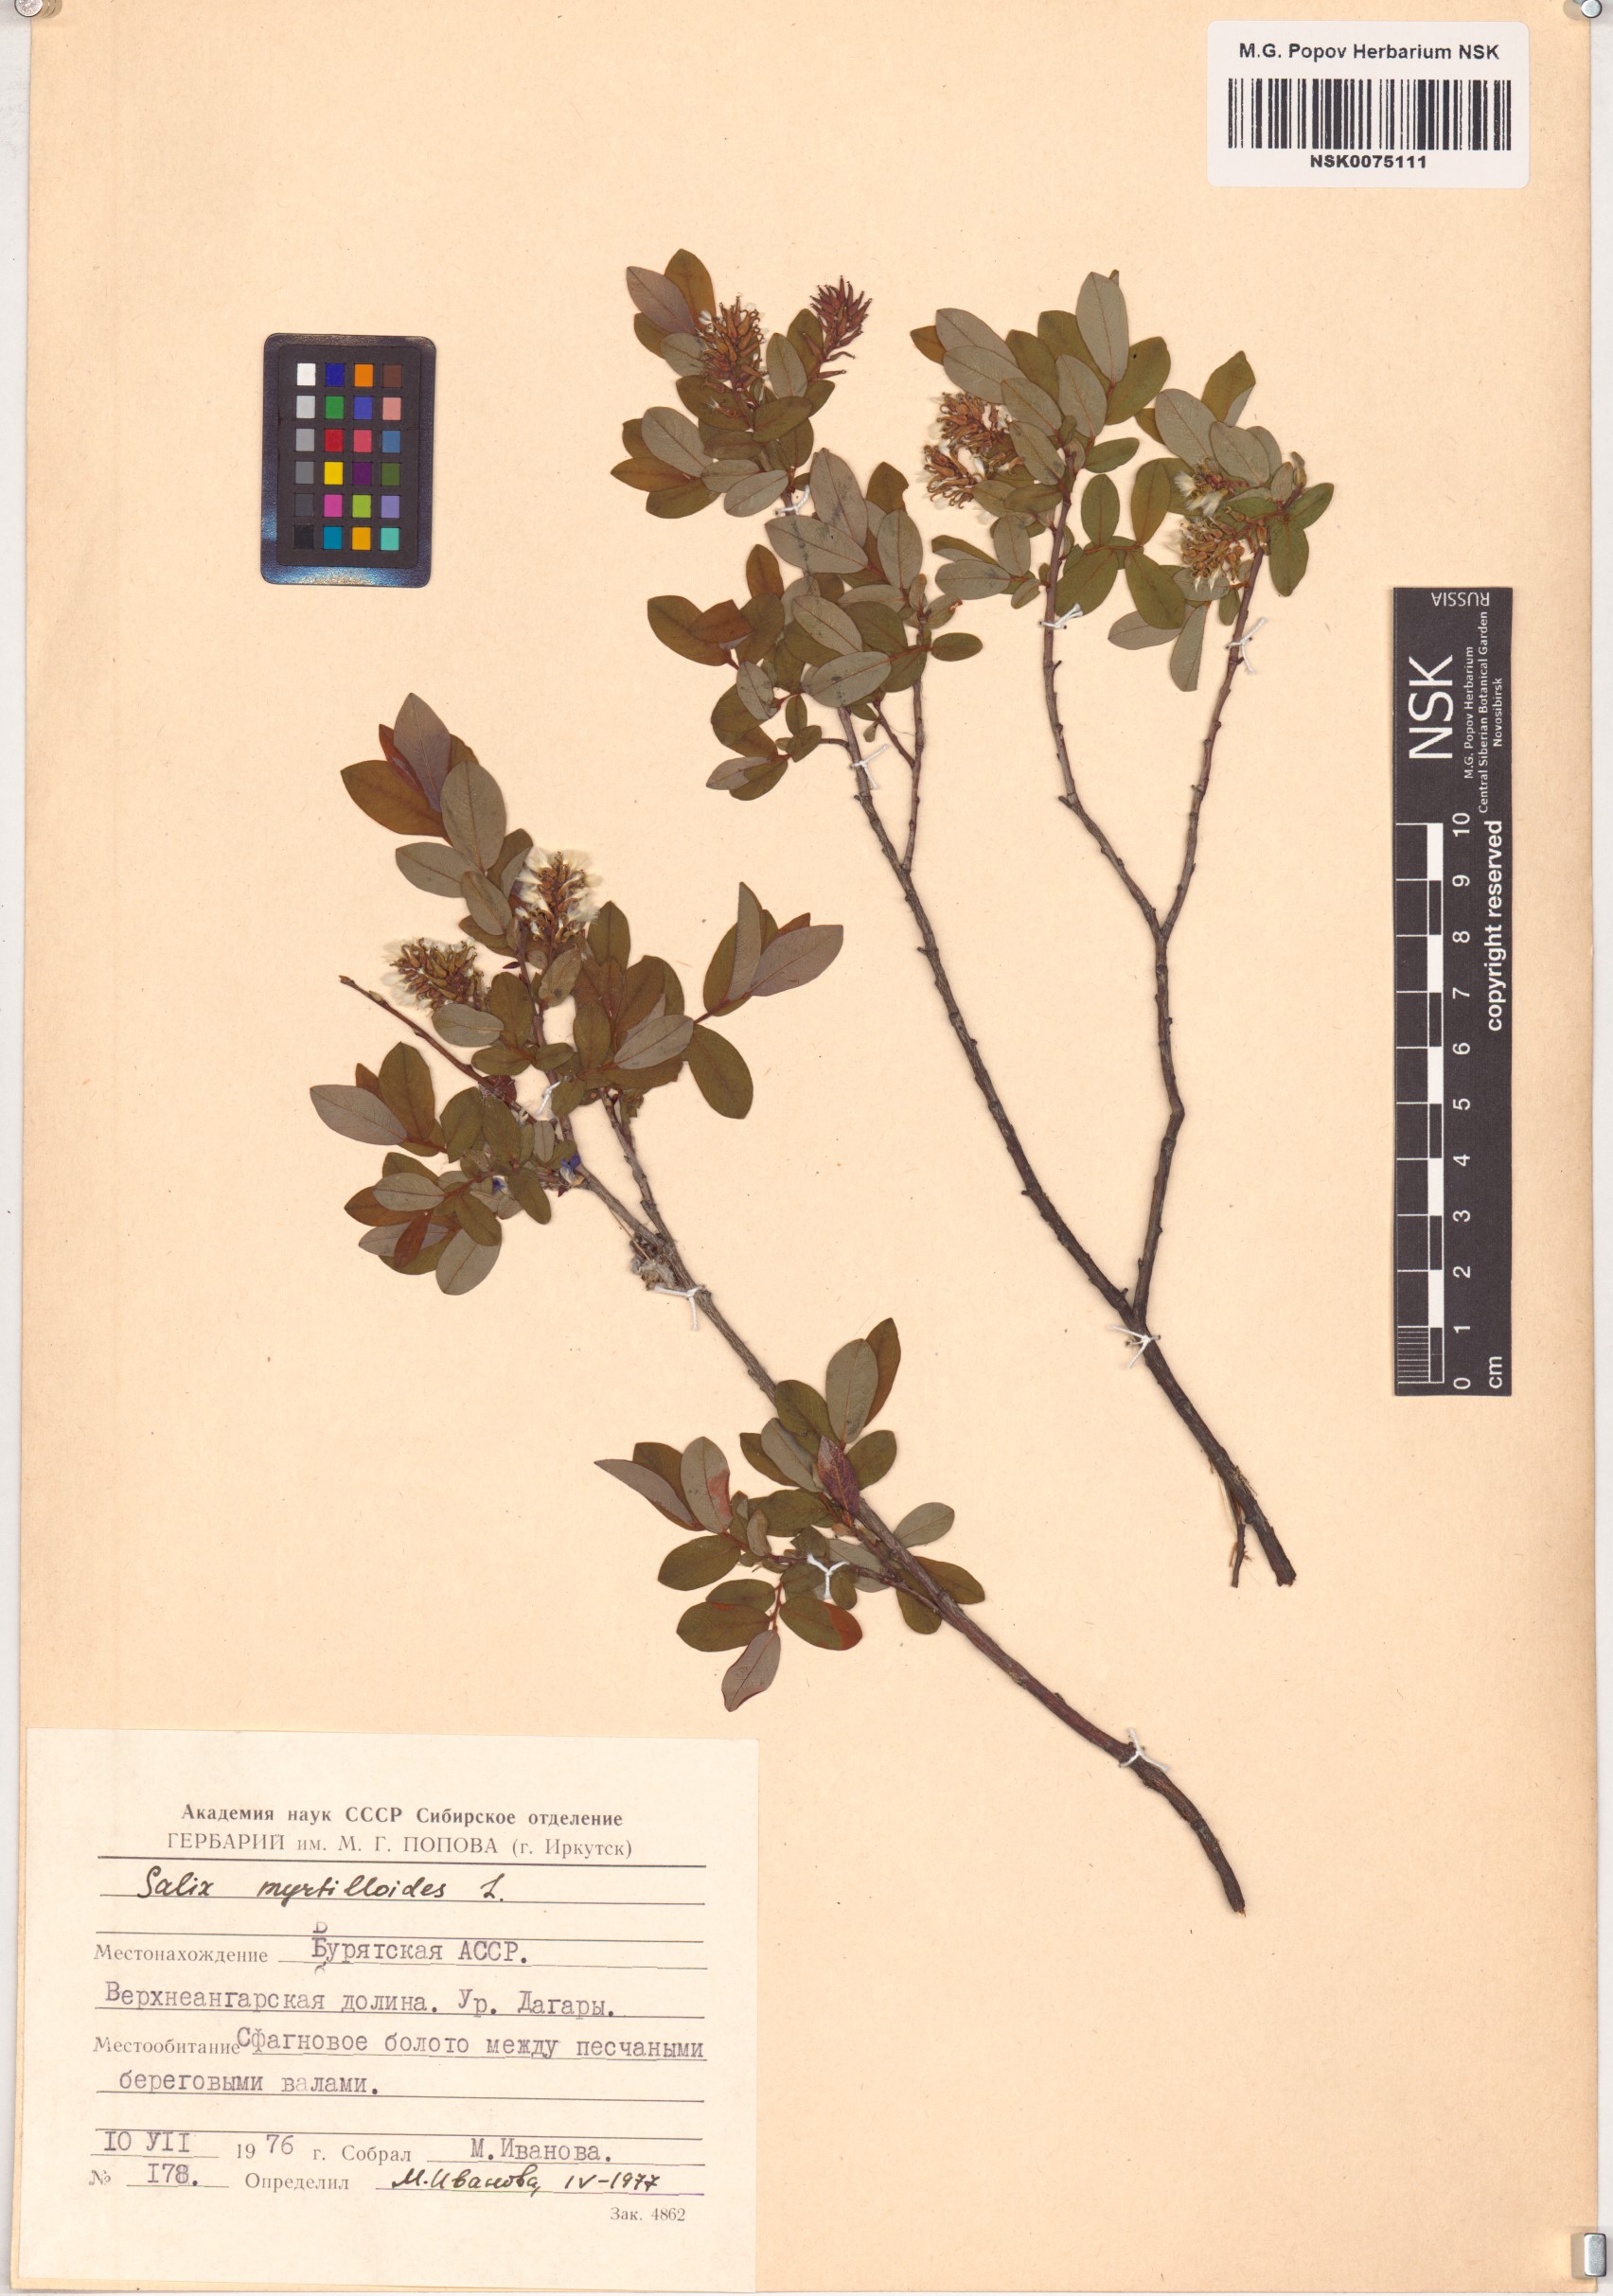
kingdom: Plantae
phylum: Tracheophyta
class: Magnoliopsida
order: Malpighiales
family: Salicaceae
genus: Salix
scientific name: Salix myrtilloides
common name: Myrtle-leaved willow
